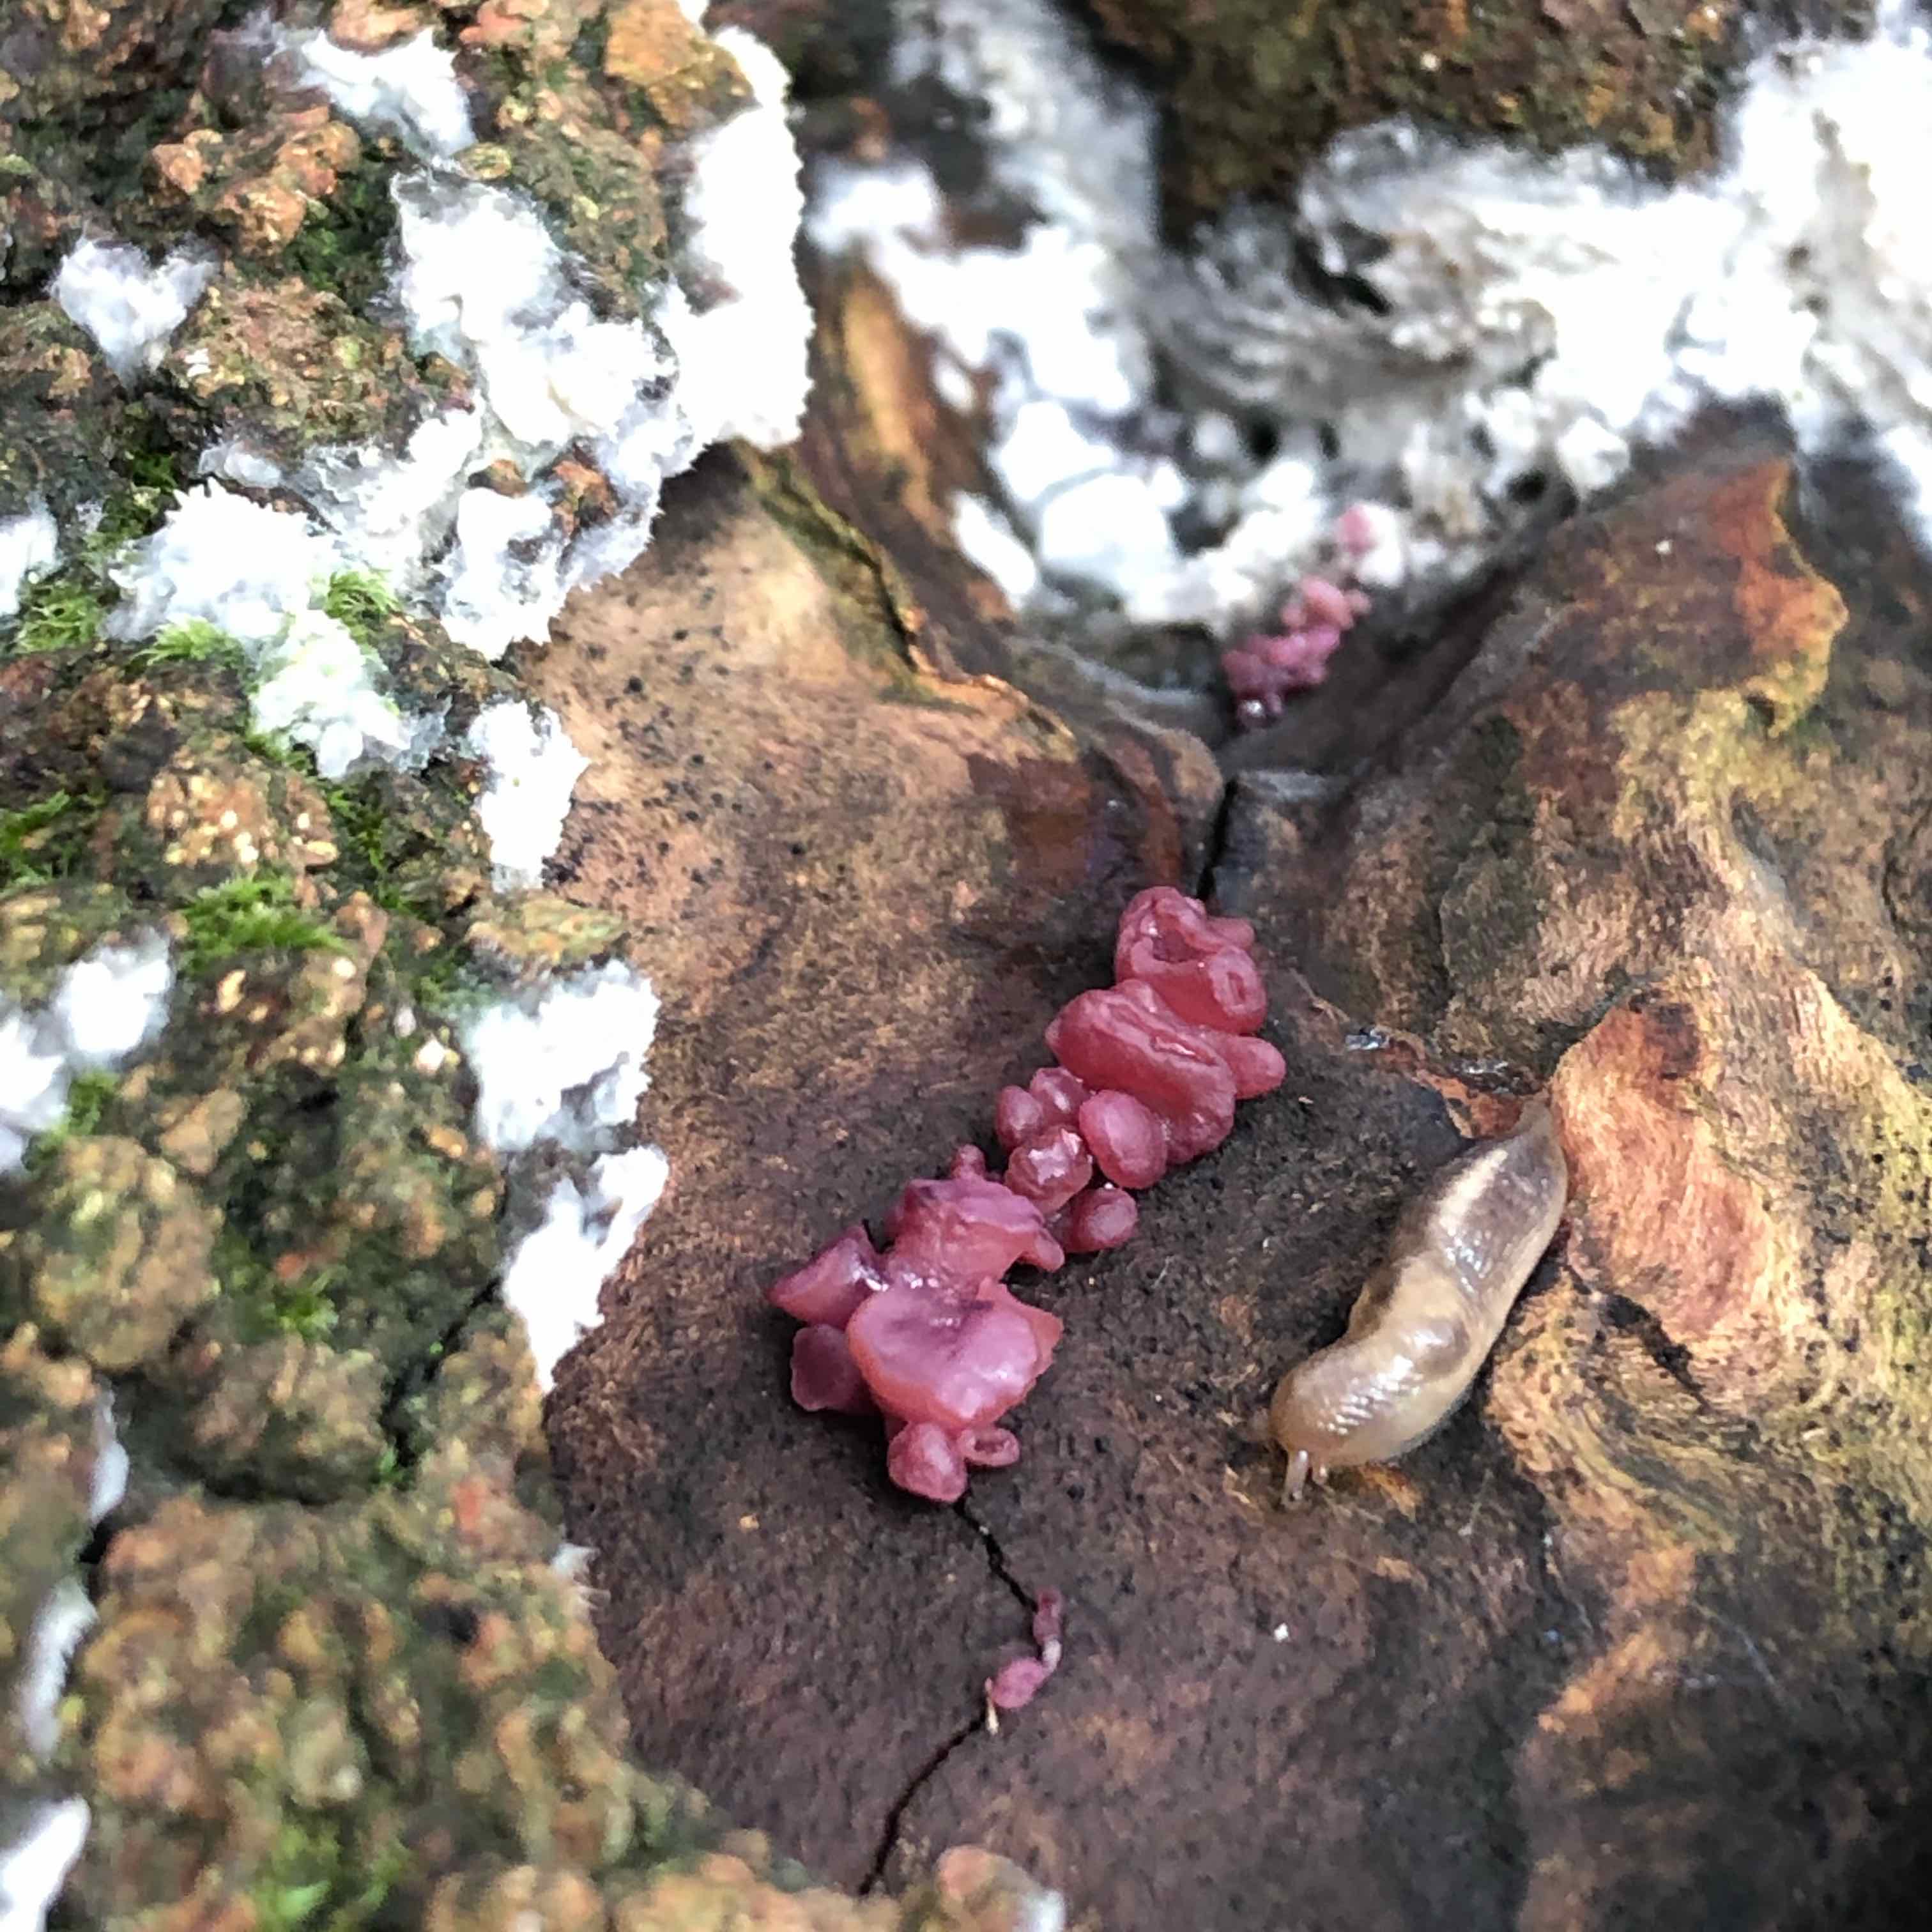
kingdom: Fungi
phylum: Ascomycota
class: Leotiomycetes
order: Helotiales
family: Gelatinodiscaceae
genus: Ascocoryne
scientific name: Ascocoryne sarcoides
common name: rødlilla sejskive
